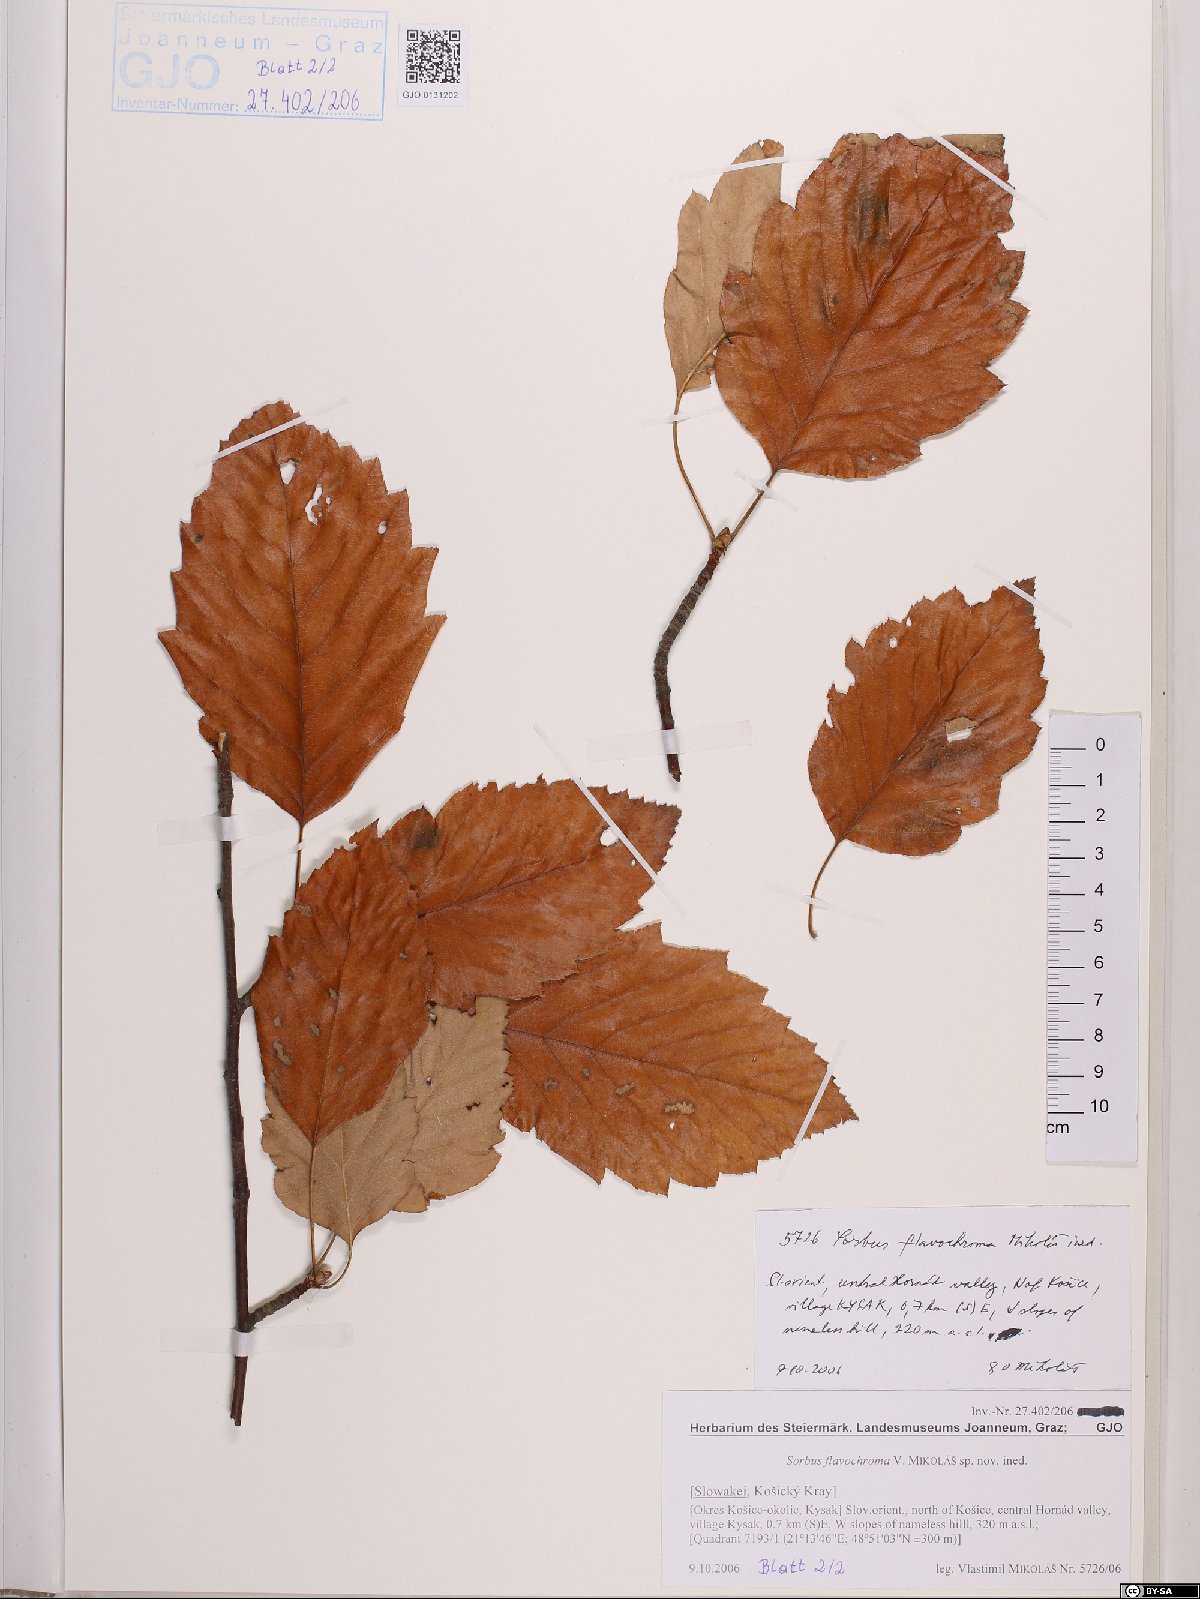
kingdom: Plantae
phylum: Tracheophyta
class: Magnoliopsida
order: Rosales
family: Rosaceae
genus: Sorbus
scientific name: Sorbus
